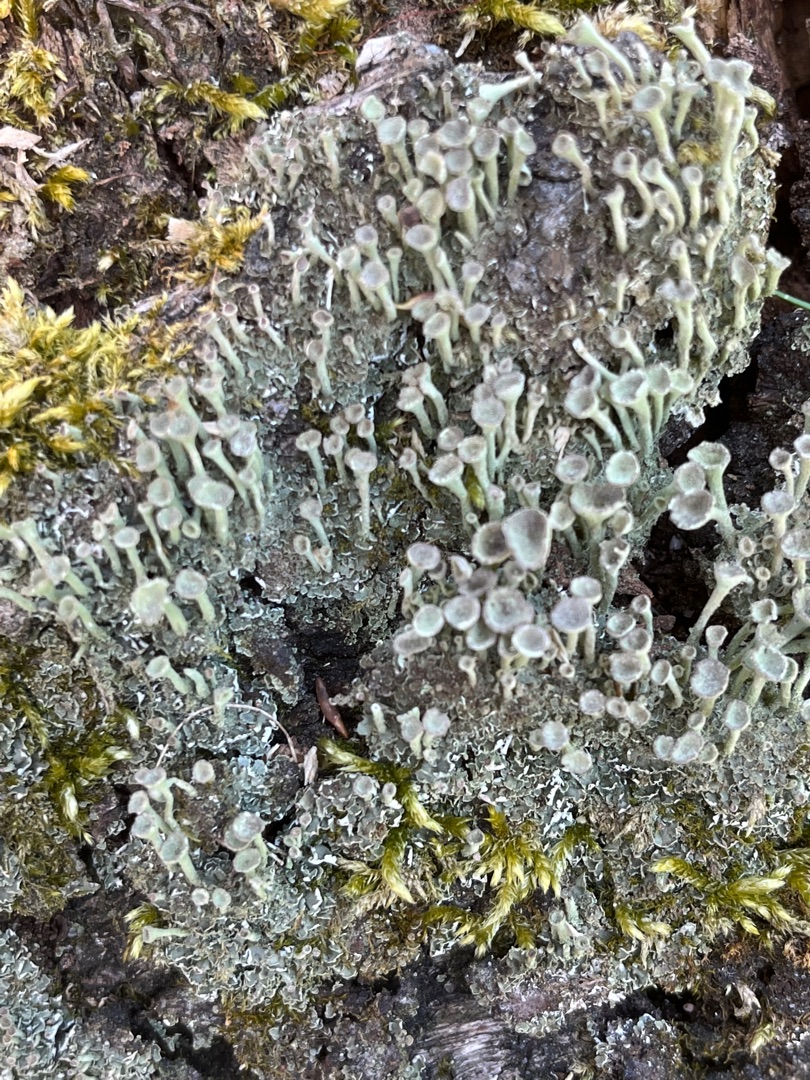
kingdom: Fungi
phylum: Ascomycota
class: Lecanoromycetes
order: Lecanorales
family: Cladoniaceae
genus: Cladonia
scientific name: Cladonia fimbriata
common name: Bleggrøn bægerlav
